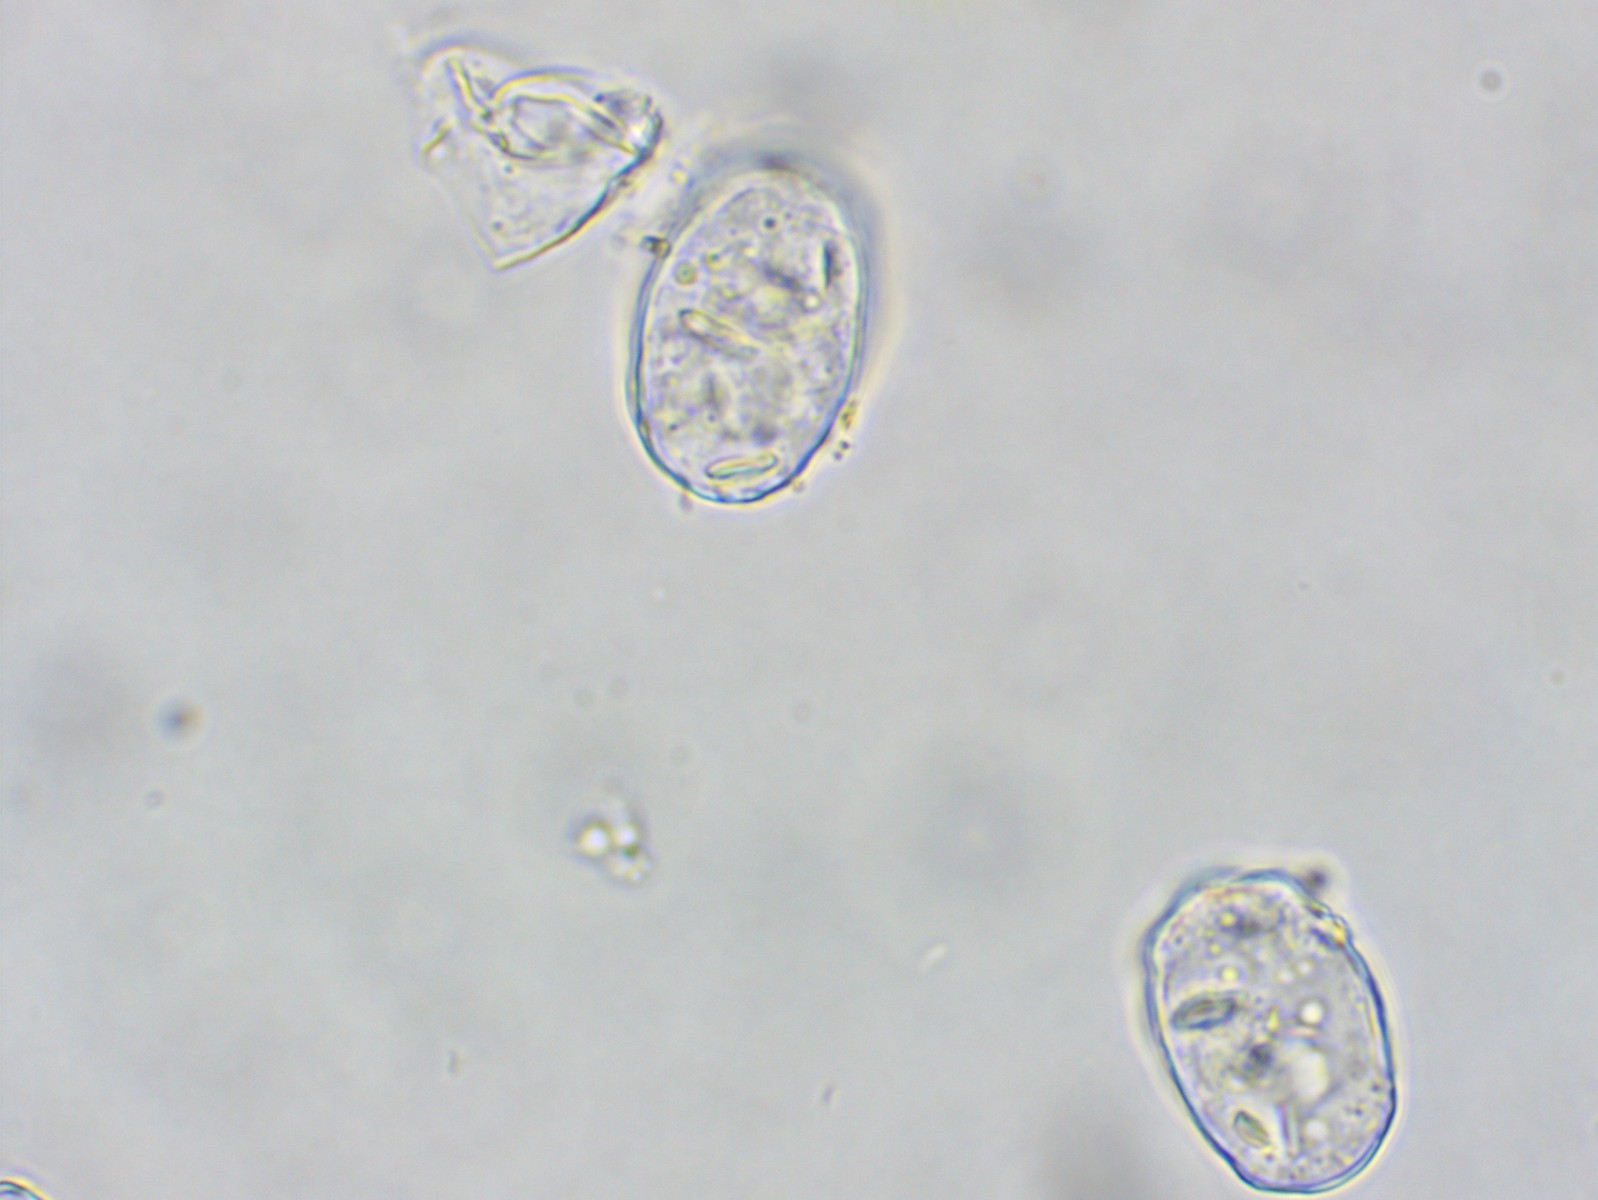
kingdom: Fungi
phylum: Ascomycota
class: Leotiomycetes
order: Helotiales
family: Erysiphaceae
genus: Podosphaera
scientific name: Podosphaera epilobii
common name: dueurt-meldug
